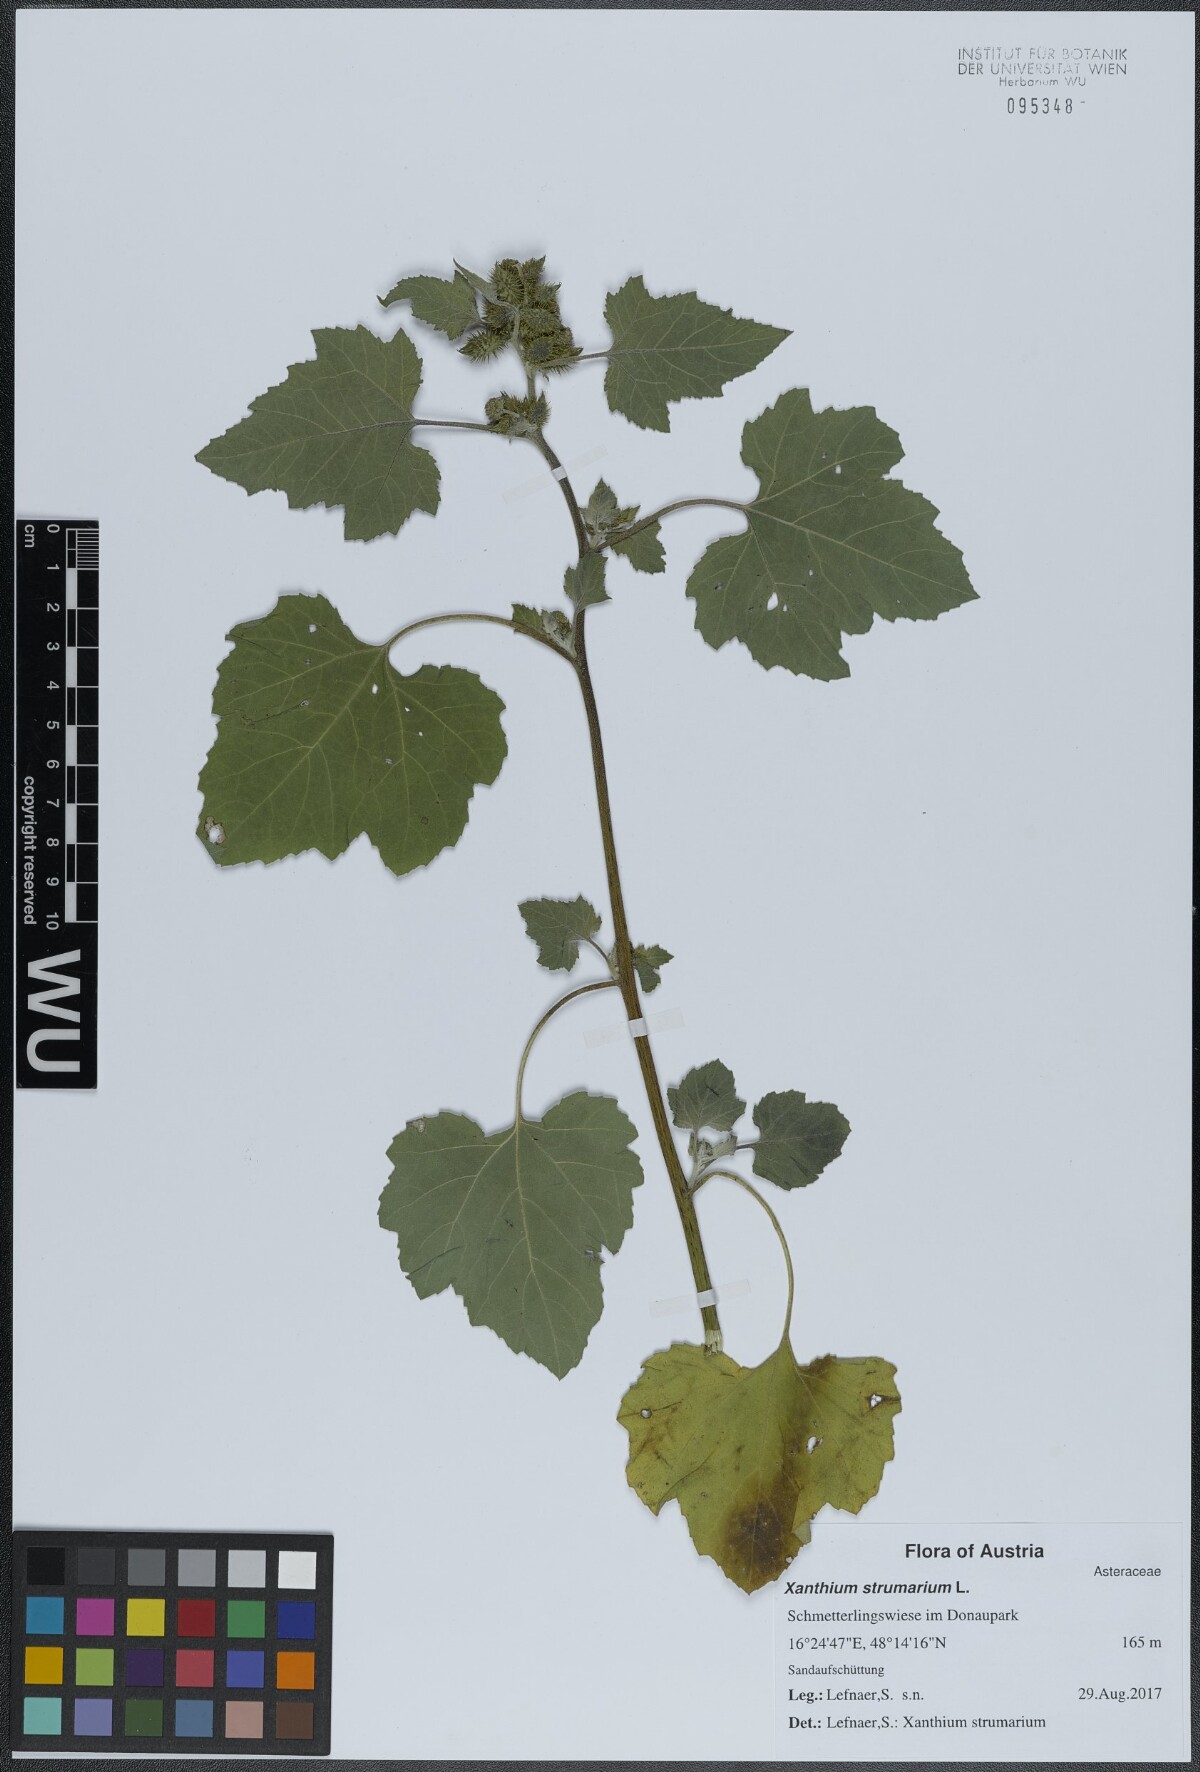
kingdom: Plantae
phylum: Tracheophyta
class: Magnoliopsida
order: Asterales
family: Asteraceae
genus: Xanthium
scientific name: Xanthium strumarium
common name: Rough cocklebur
